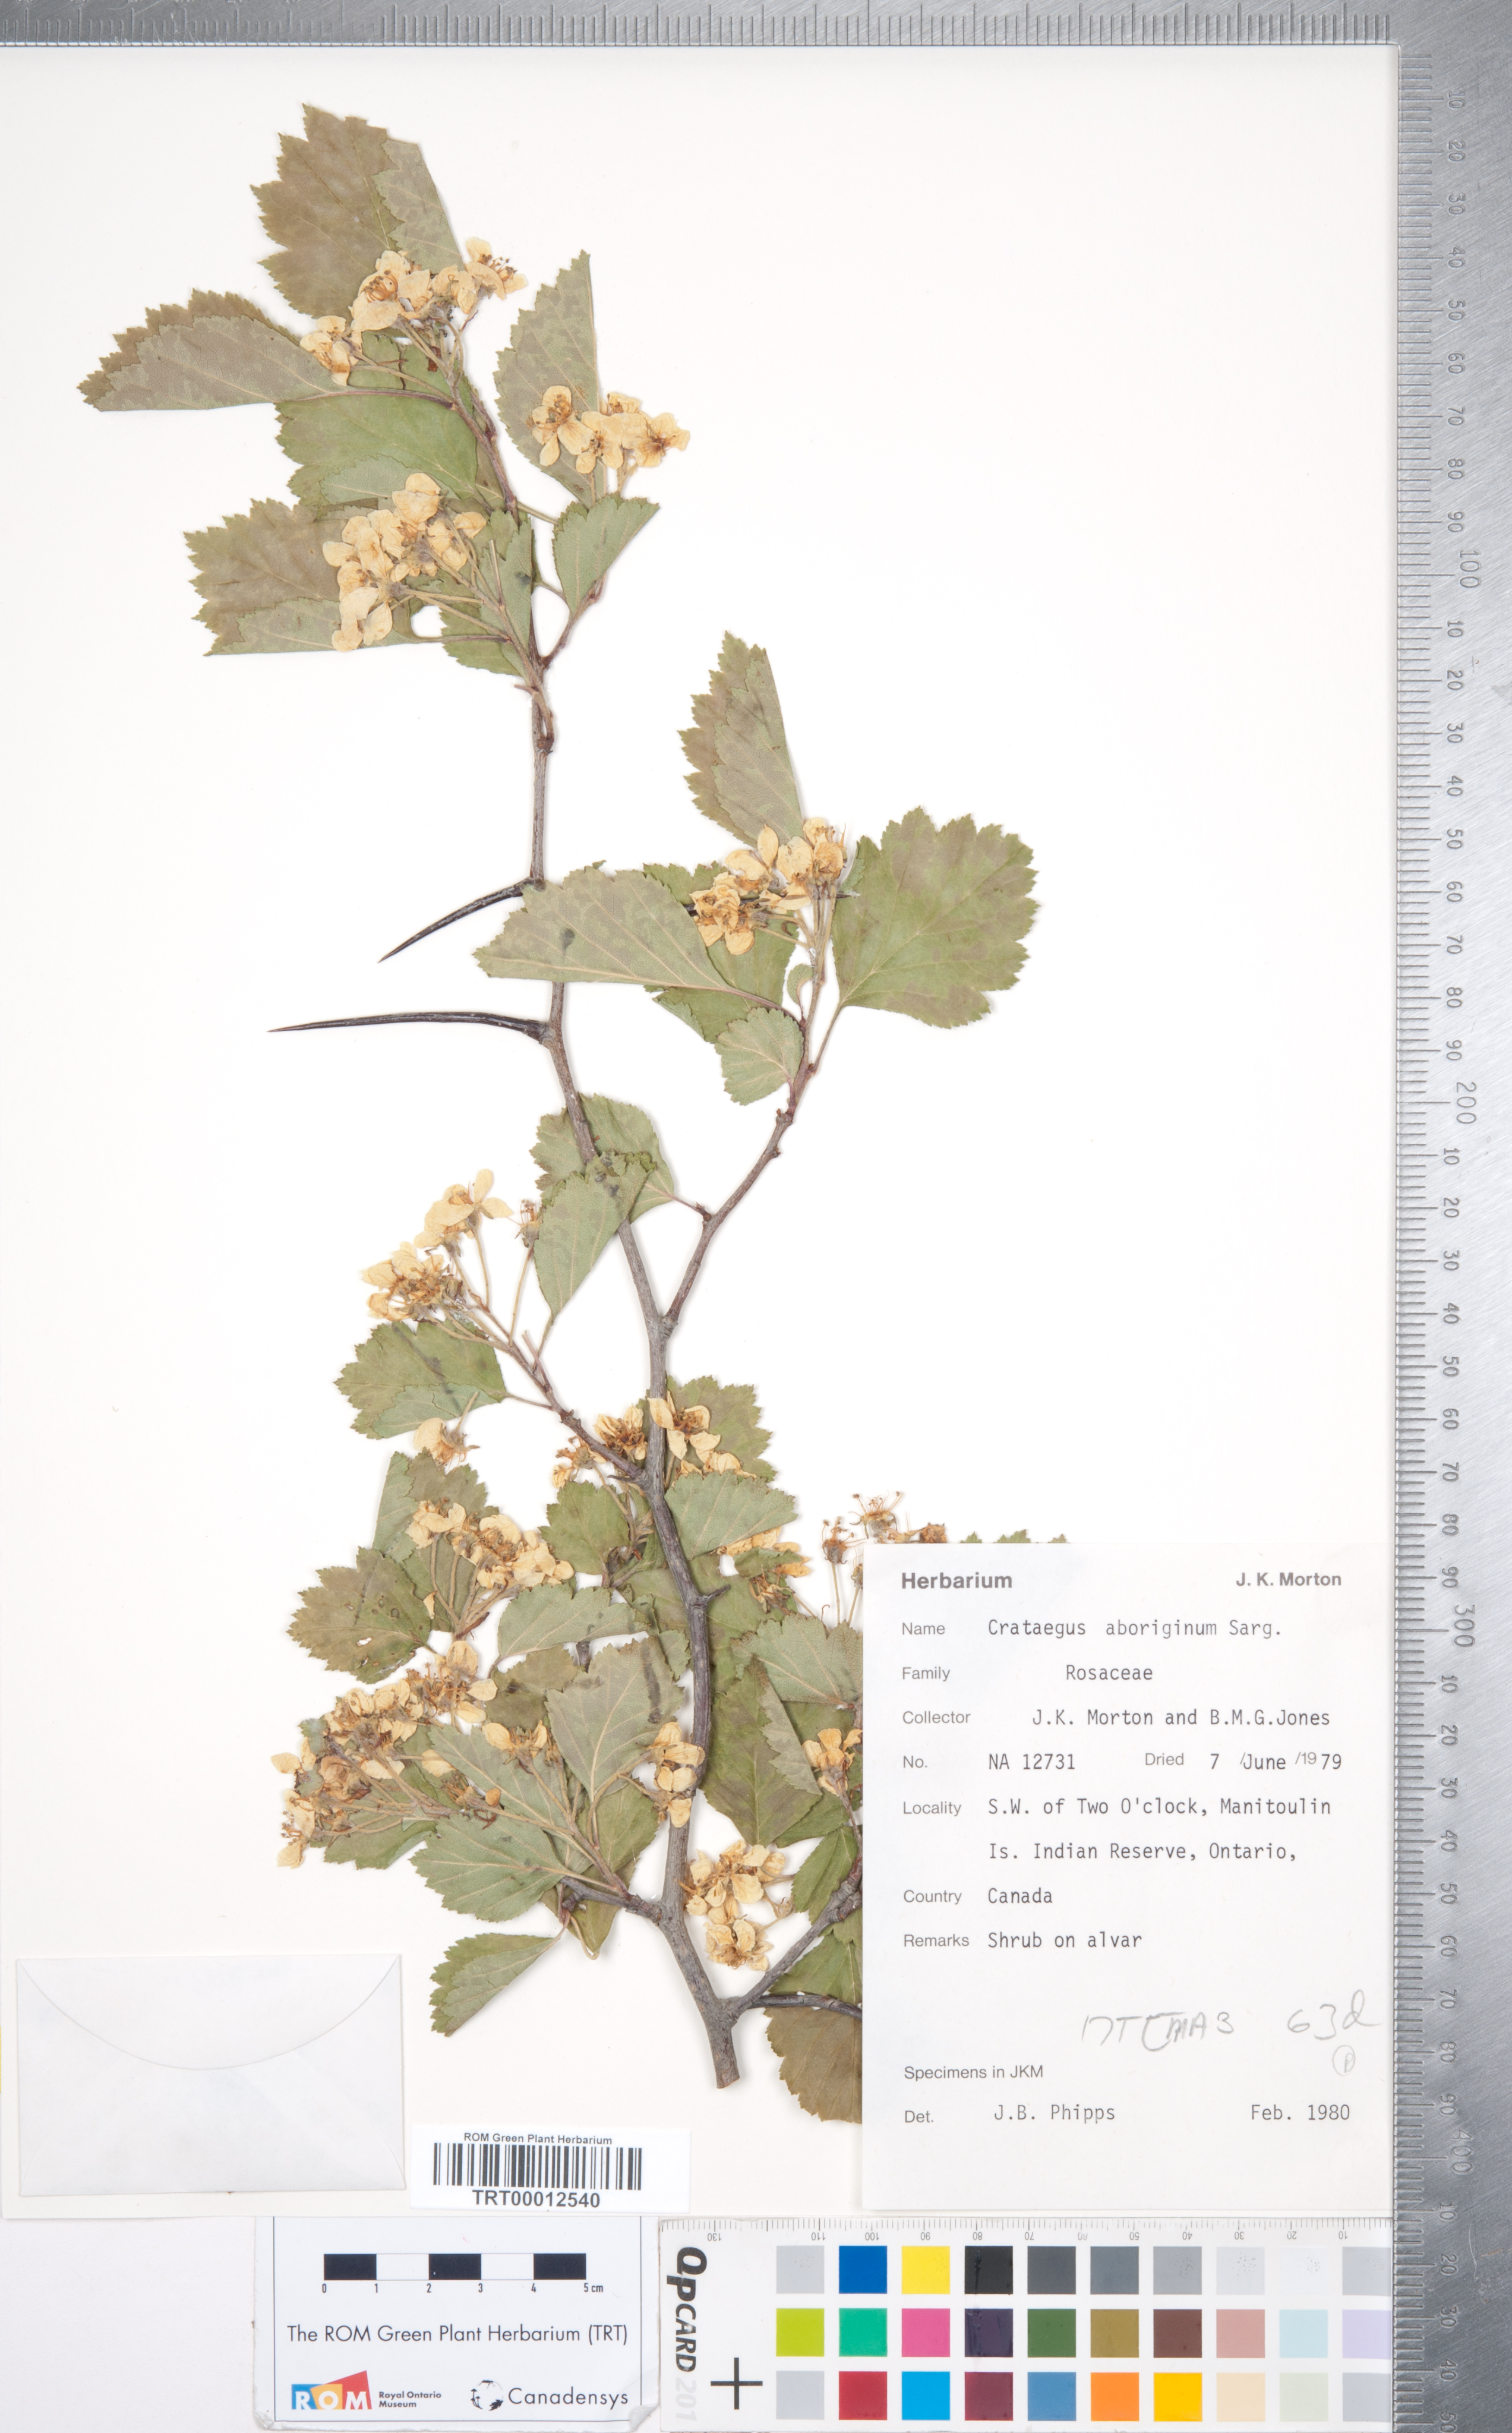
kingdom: Plantae
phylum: Tracheophyta
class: Magnoliopsida
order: Rosales
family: Rosaceae
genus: Crataegus
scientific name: Crataegus chrysocarpa
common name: Fire-berry hawthorn
